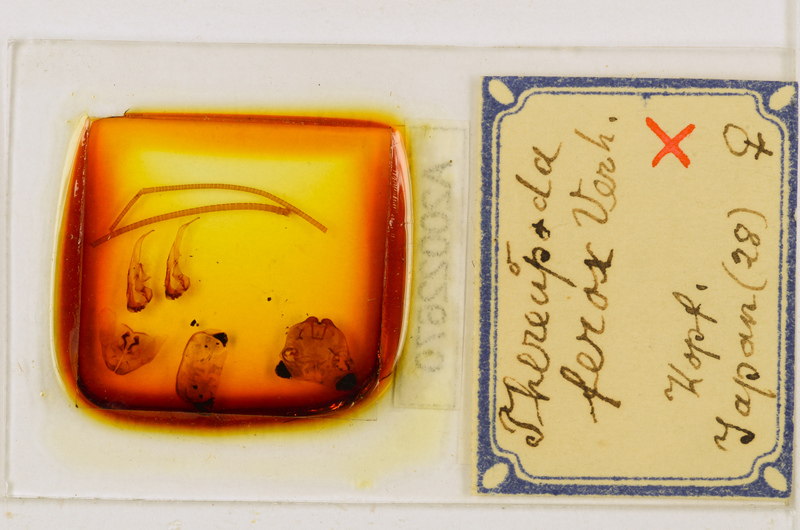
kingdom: Animalia
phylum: Arthropoda
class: Chilopoda
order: Scutigeromorpha
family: Scutigeridae
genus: Thereuopoda
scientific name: Thereuopoda clunifera
